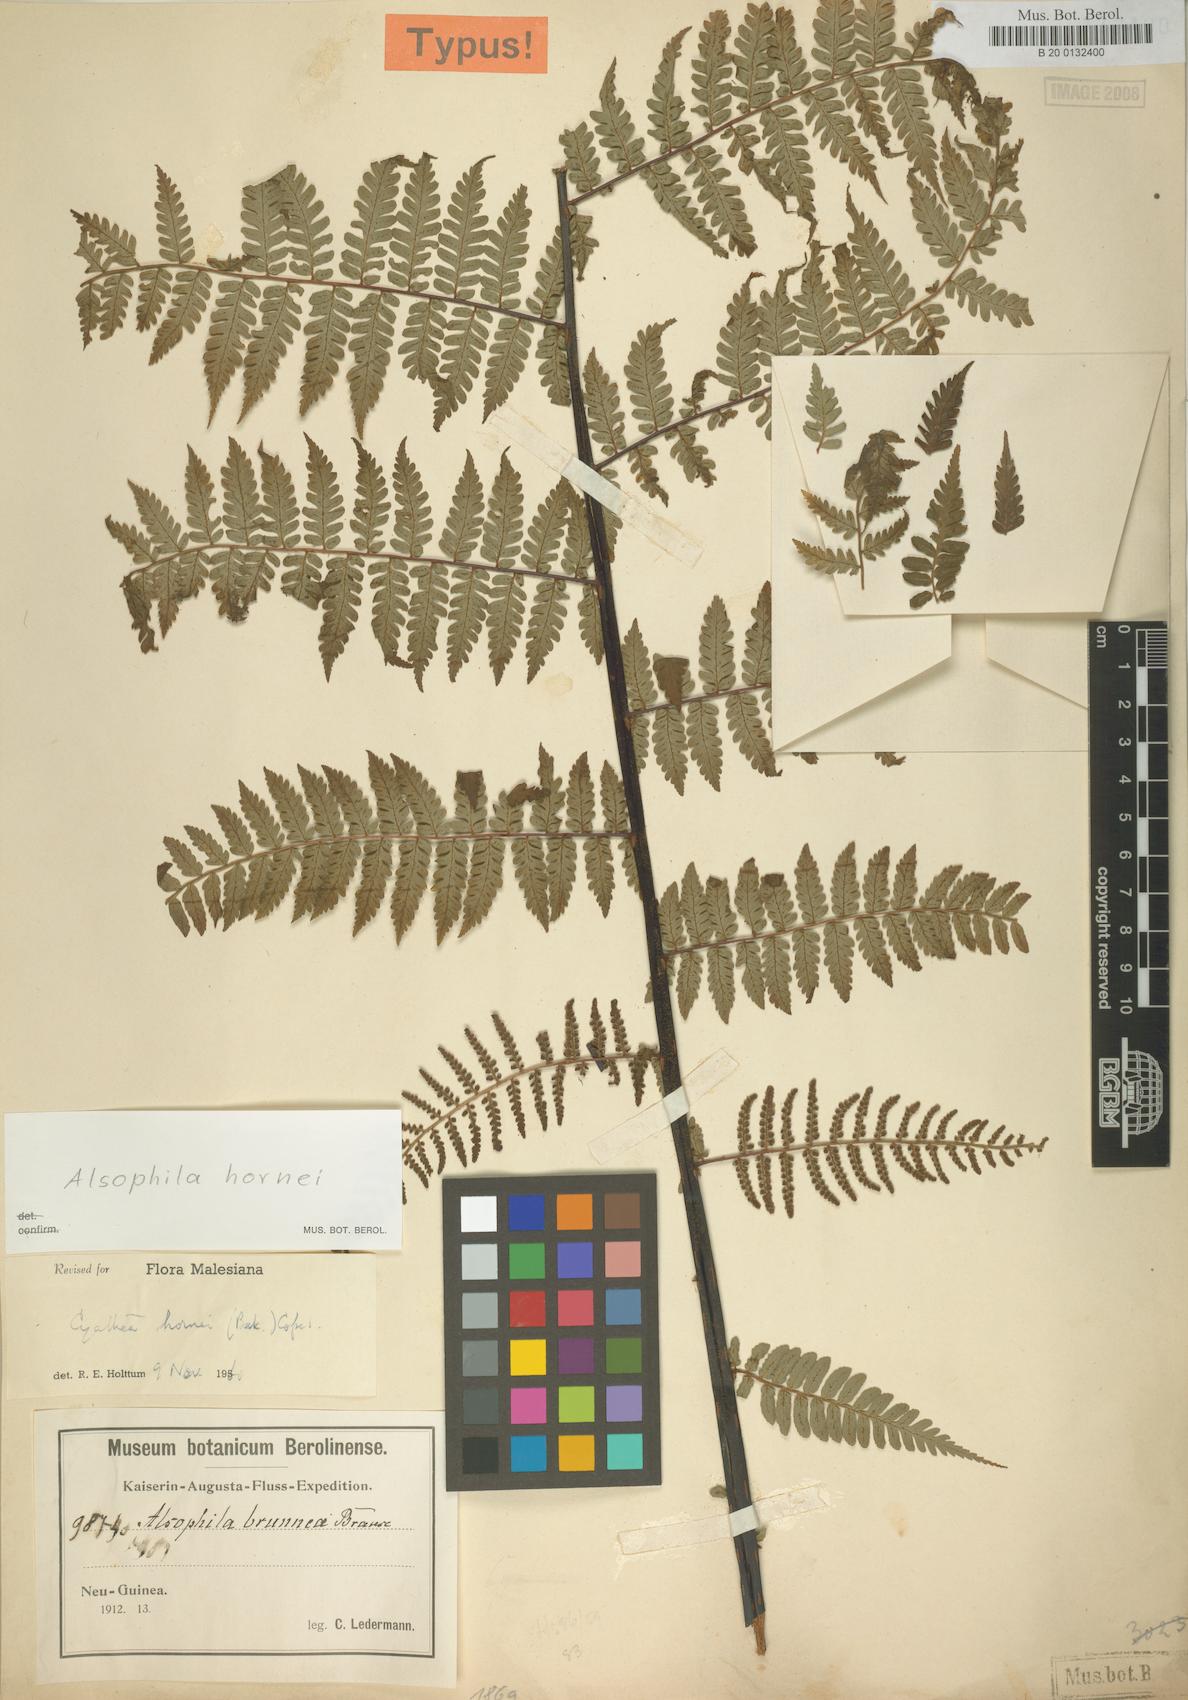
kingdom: Plantae
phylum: Tracheophyta
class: Polypodiopsida
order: Cyatheales
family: Cyatheaceae
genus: Gymnosphaera
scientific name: Gymnosphaera hornei
